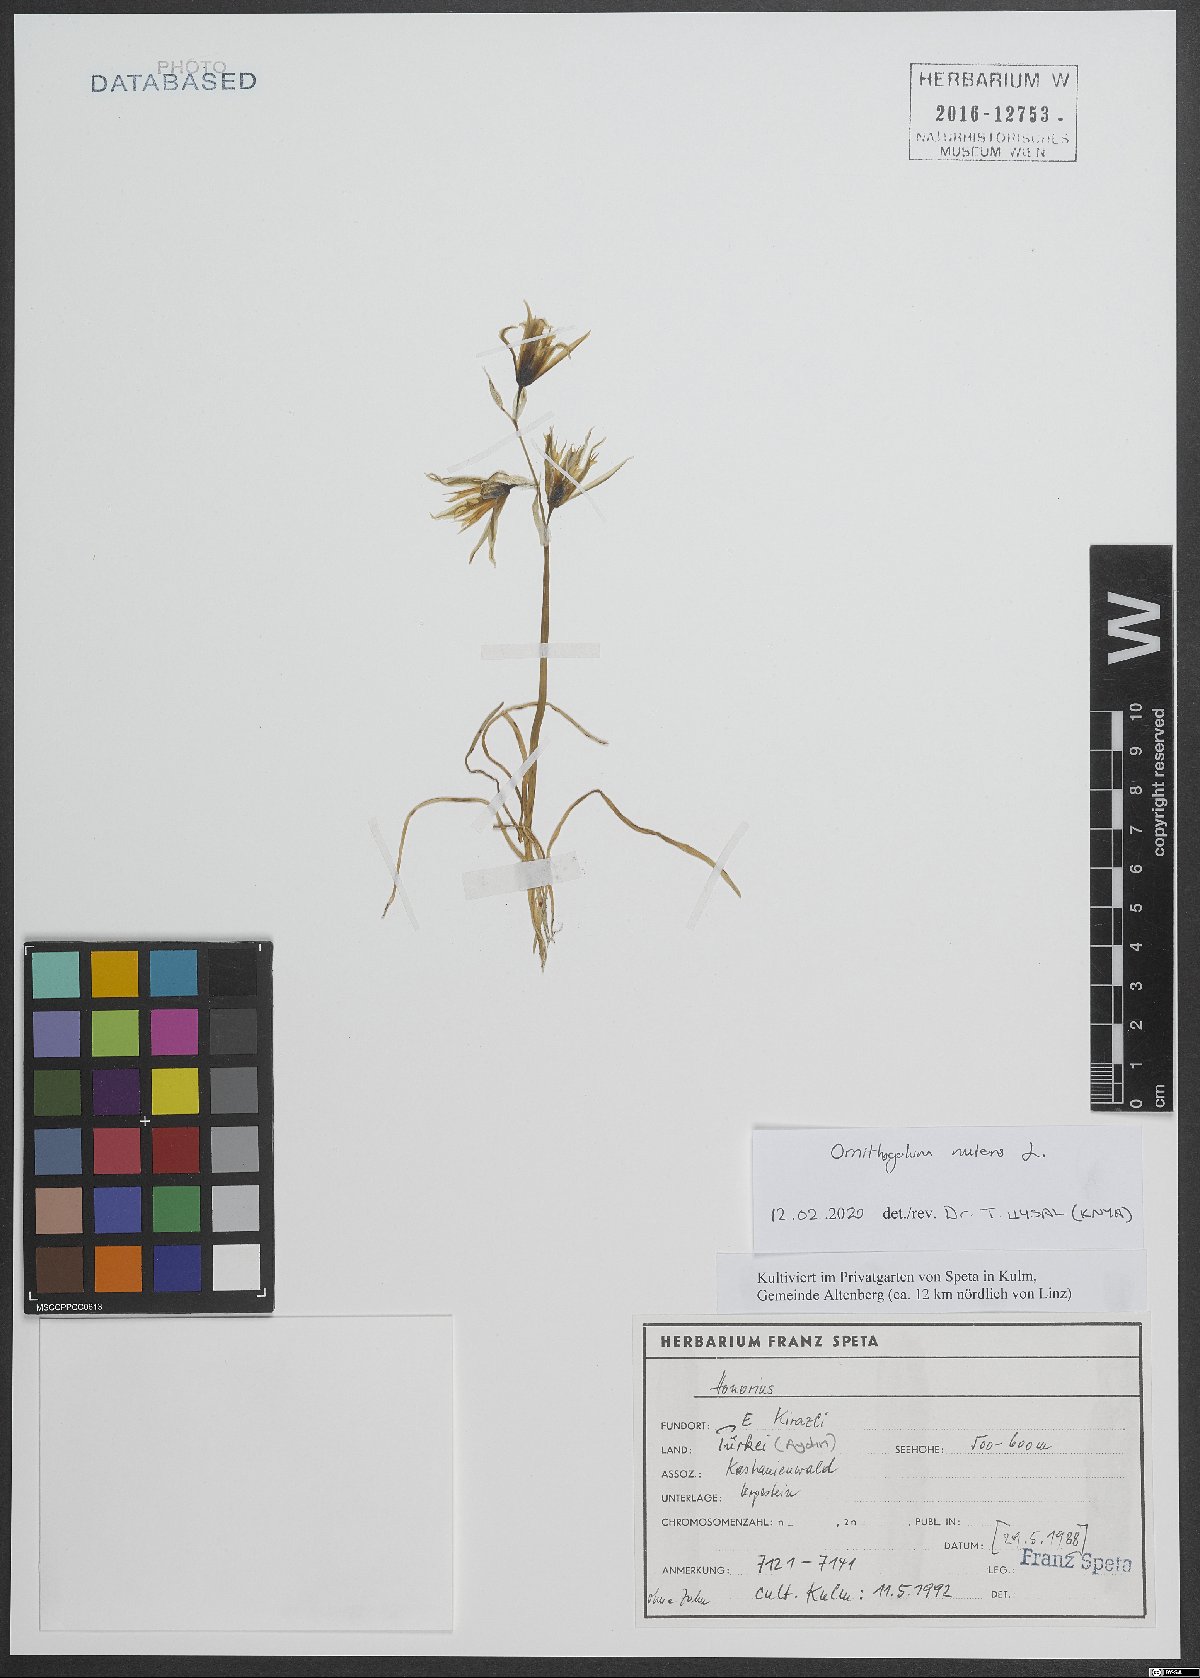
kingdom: Plantae
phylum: Tracheophyta
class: Liliopsida
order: Asparagales
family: Asparagaceae
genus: Ornithogalum
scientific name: Ornithogalum nutans
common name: Drooping star-of-bethlehem
